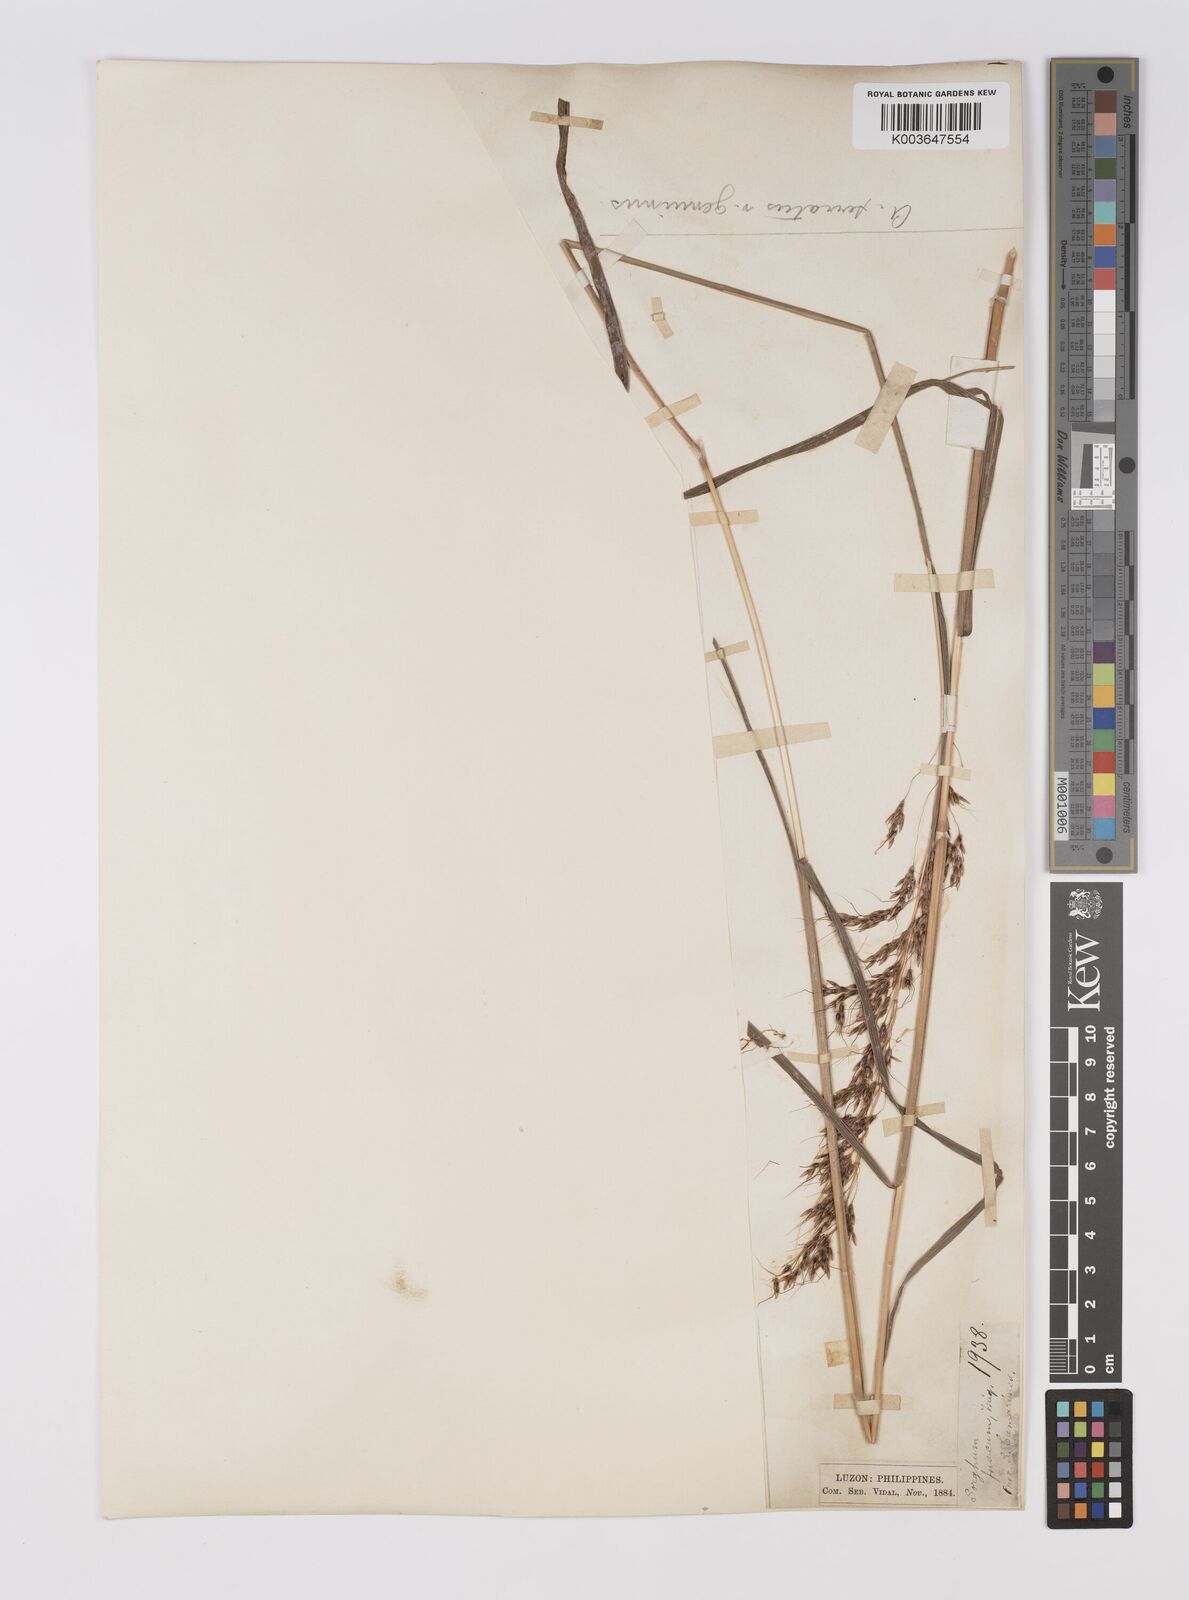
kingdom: Plantae
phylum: Tracheophyta
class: Liliopsida
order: Poales
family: Poaceae
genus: Sorghum
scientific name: Sorghum nitidum
